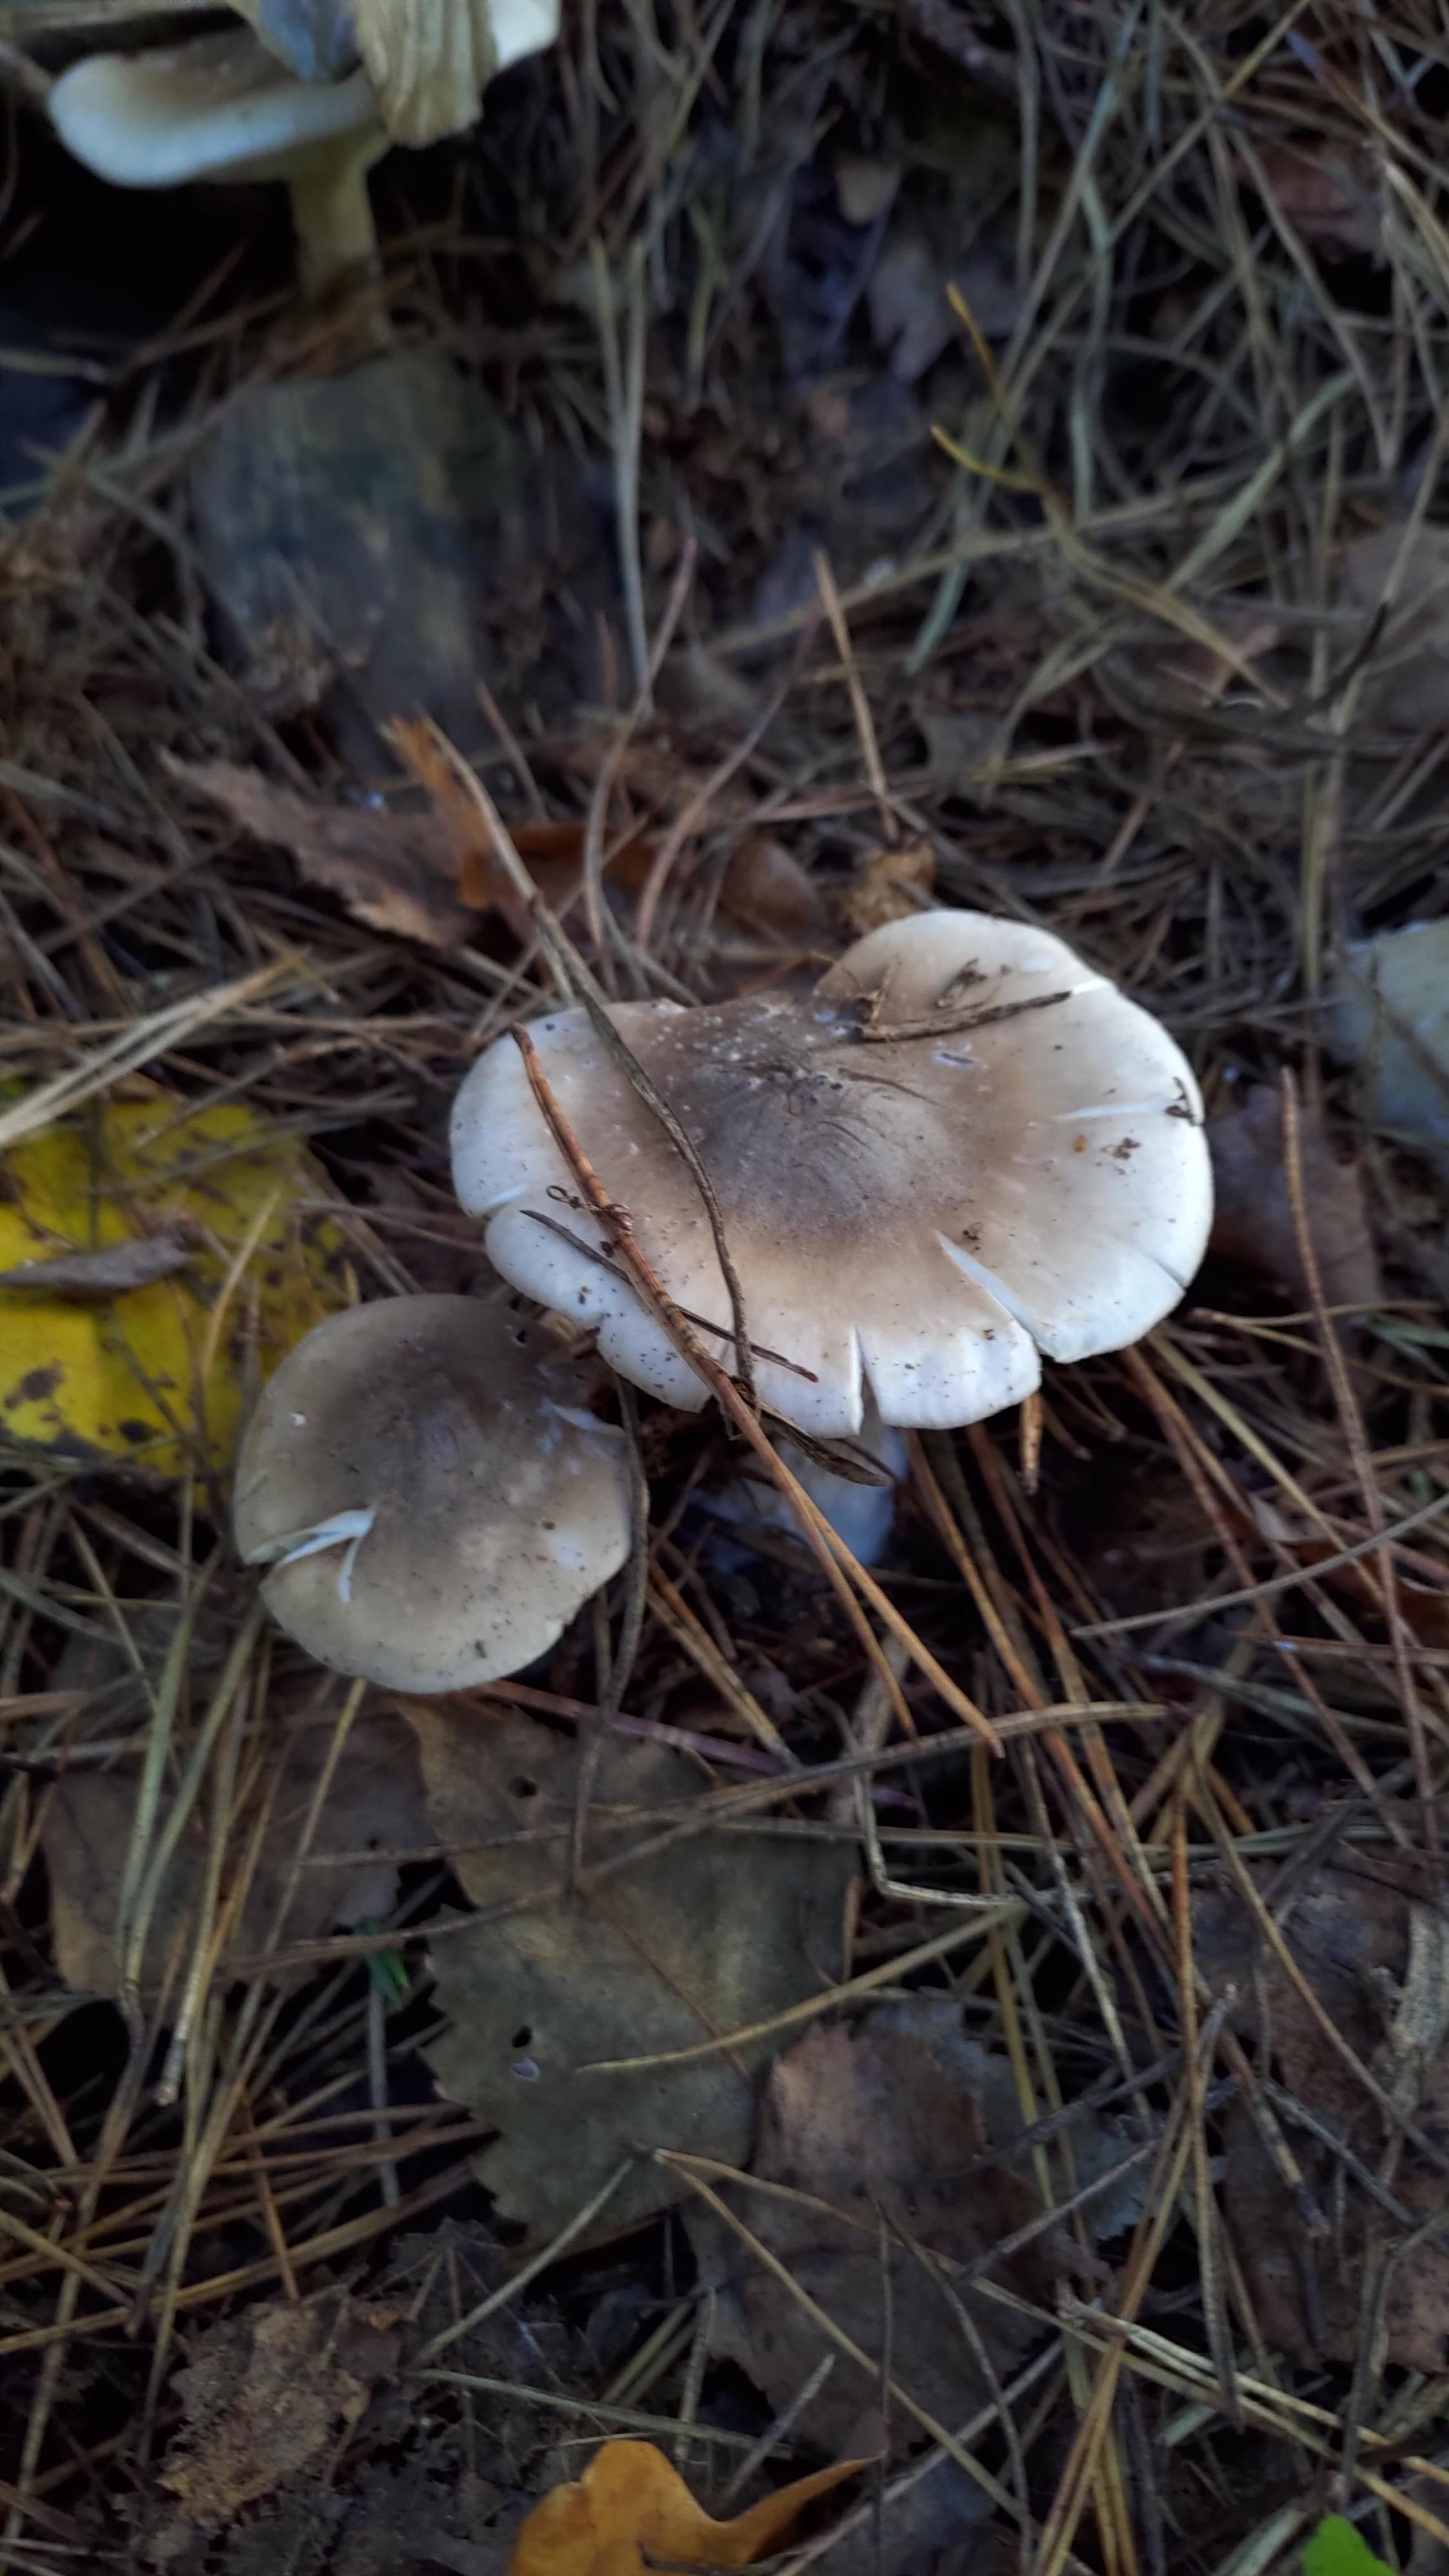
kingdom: Fungi
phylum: Basidiomycota
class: Agaricomycetes
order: Agaricales
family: Tricholomataceae
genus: Clitocybe
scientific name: Clitocybe nebularis
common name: tåge-tragthat
